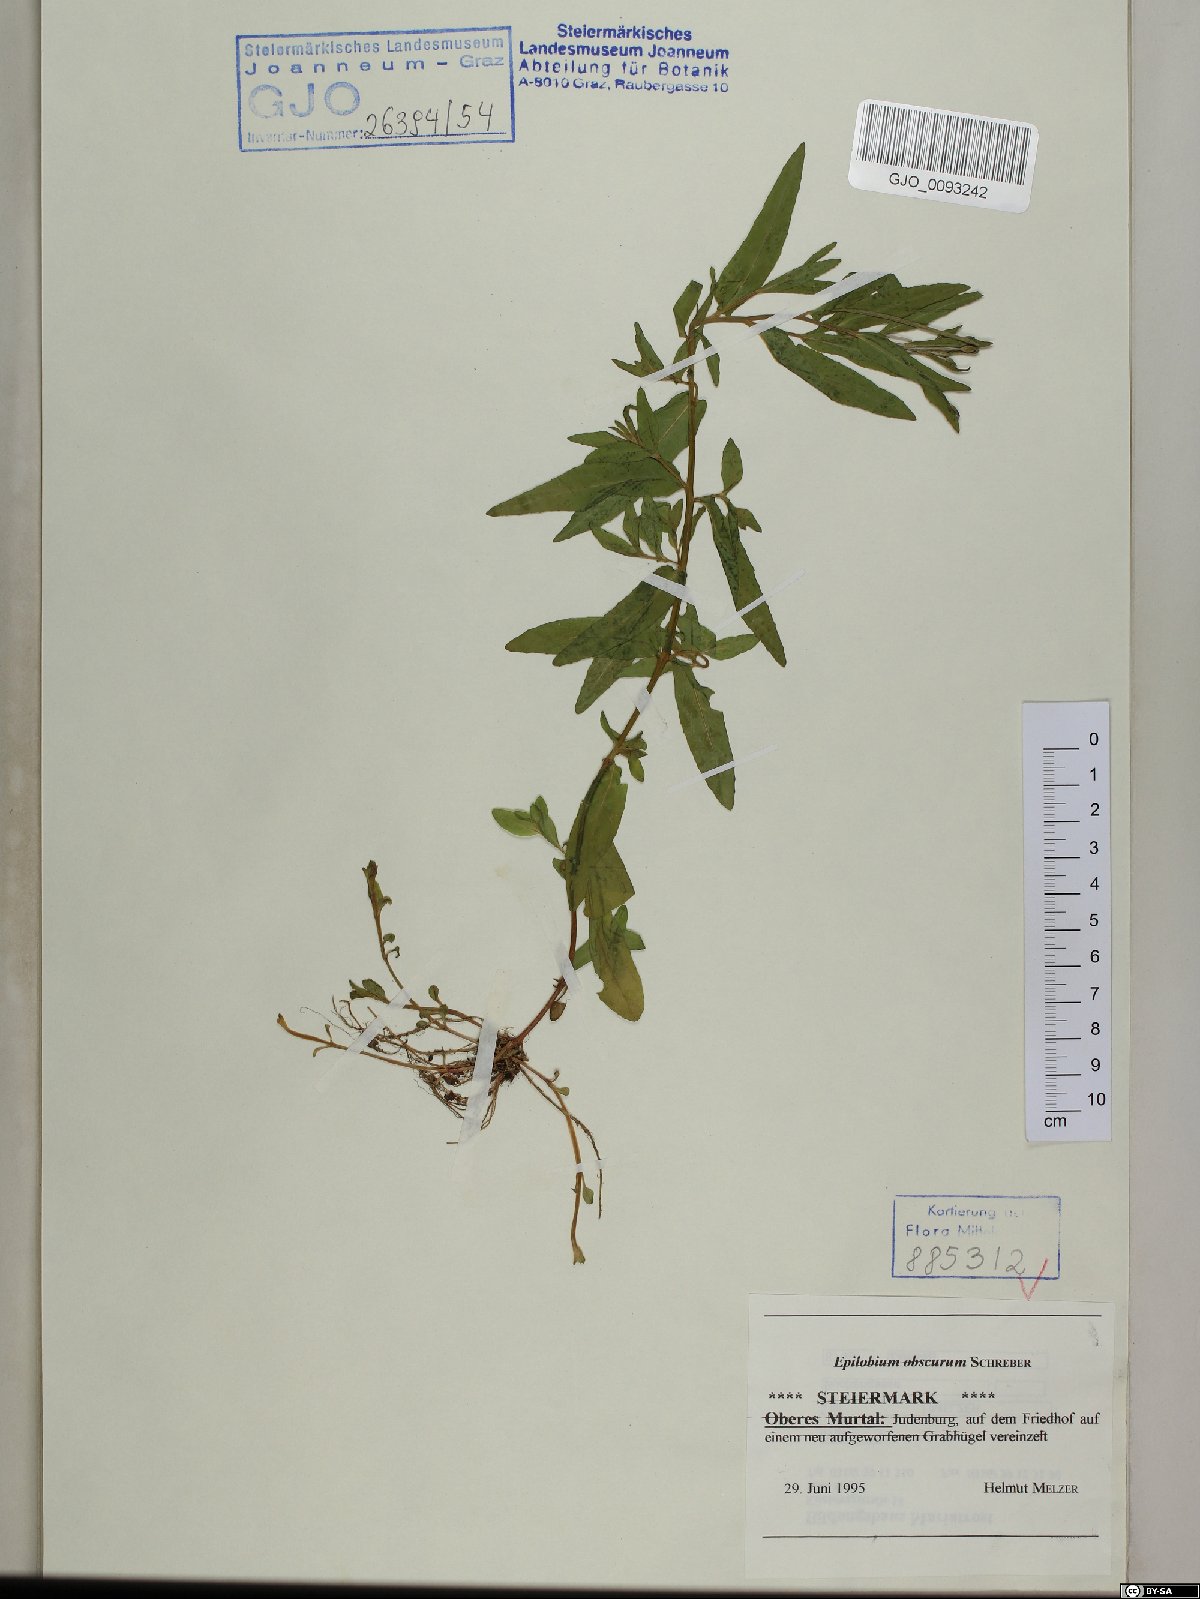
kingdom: Plantae
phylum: Tracheophyta
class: Magnoliopsida
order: Myrtales
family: Onagraceae
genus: Epilobium
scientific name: Epilobium obscurum
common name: Short-fruited willowherb
